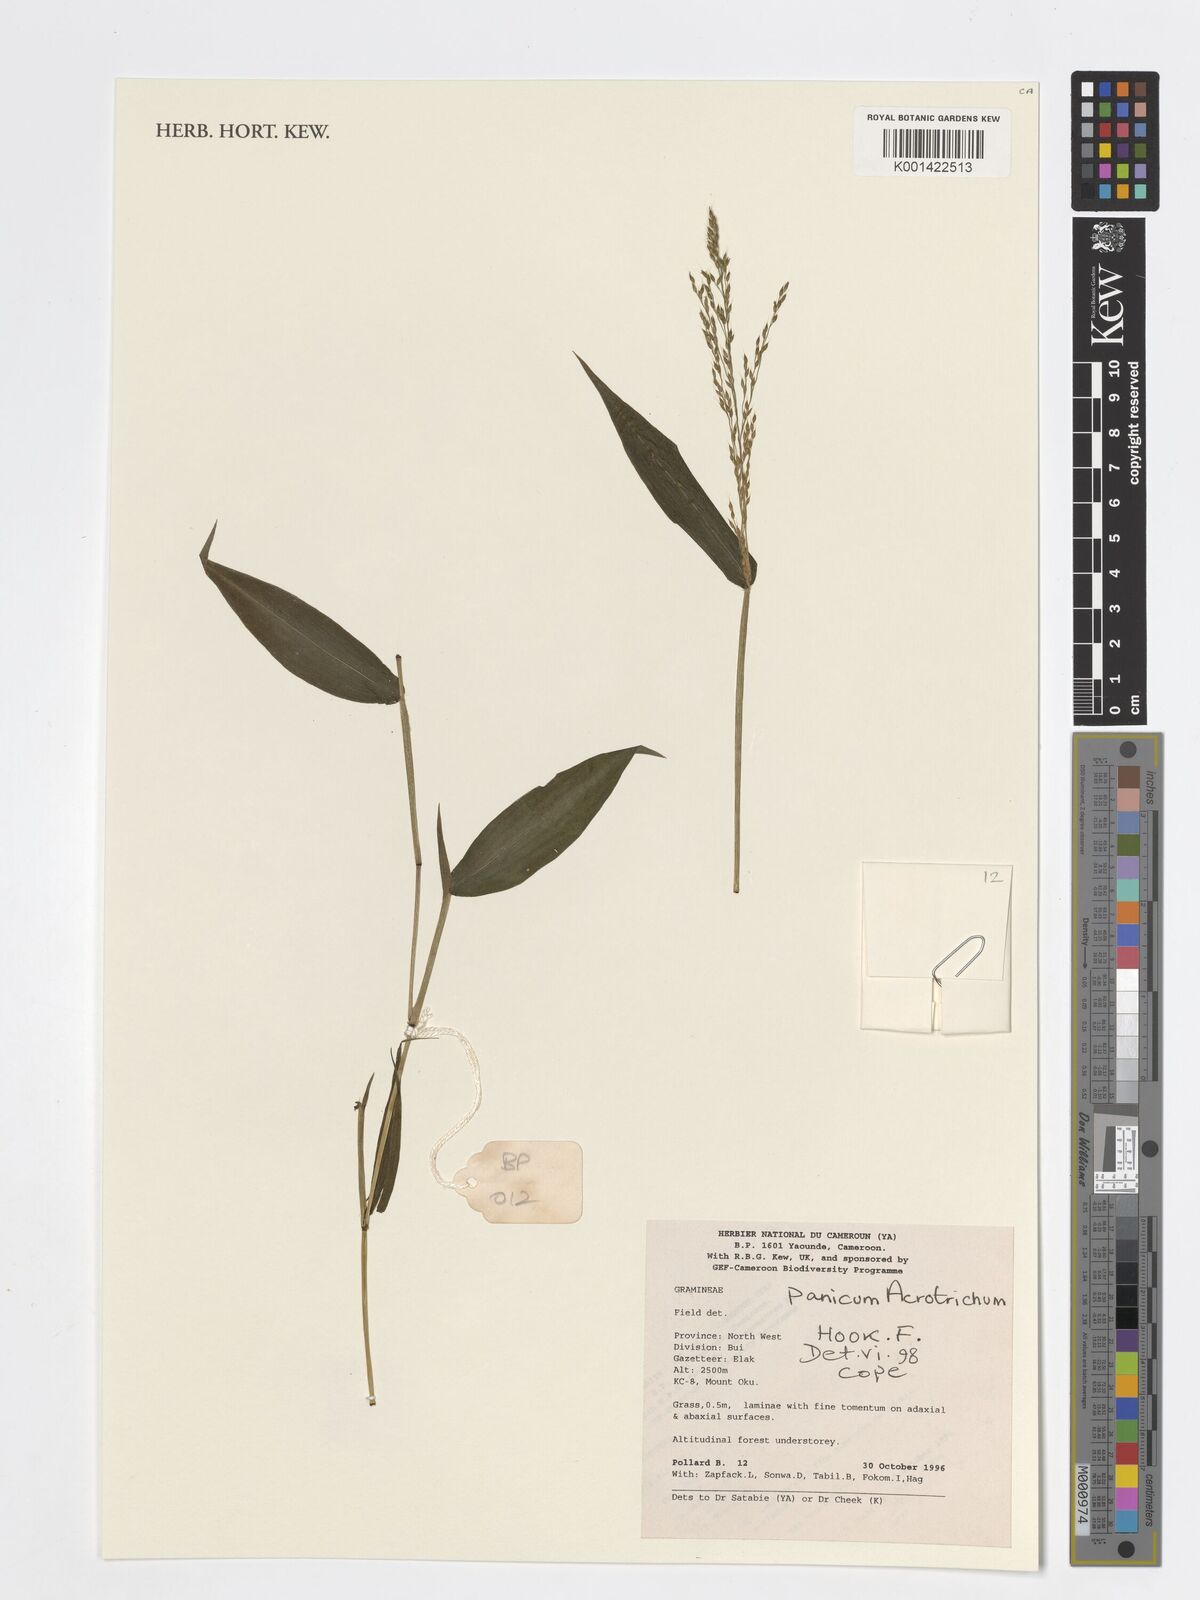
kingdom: Plantae
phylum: Tracheophyta
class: Liliopsida
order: Poales
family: Poaceae
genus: Panicum
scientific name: Panicum acrotrichum
